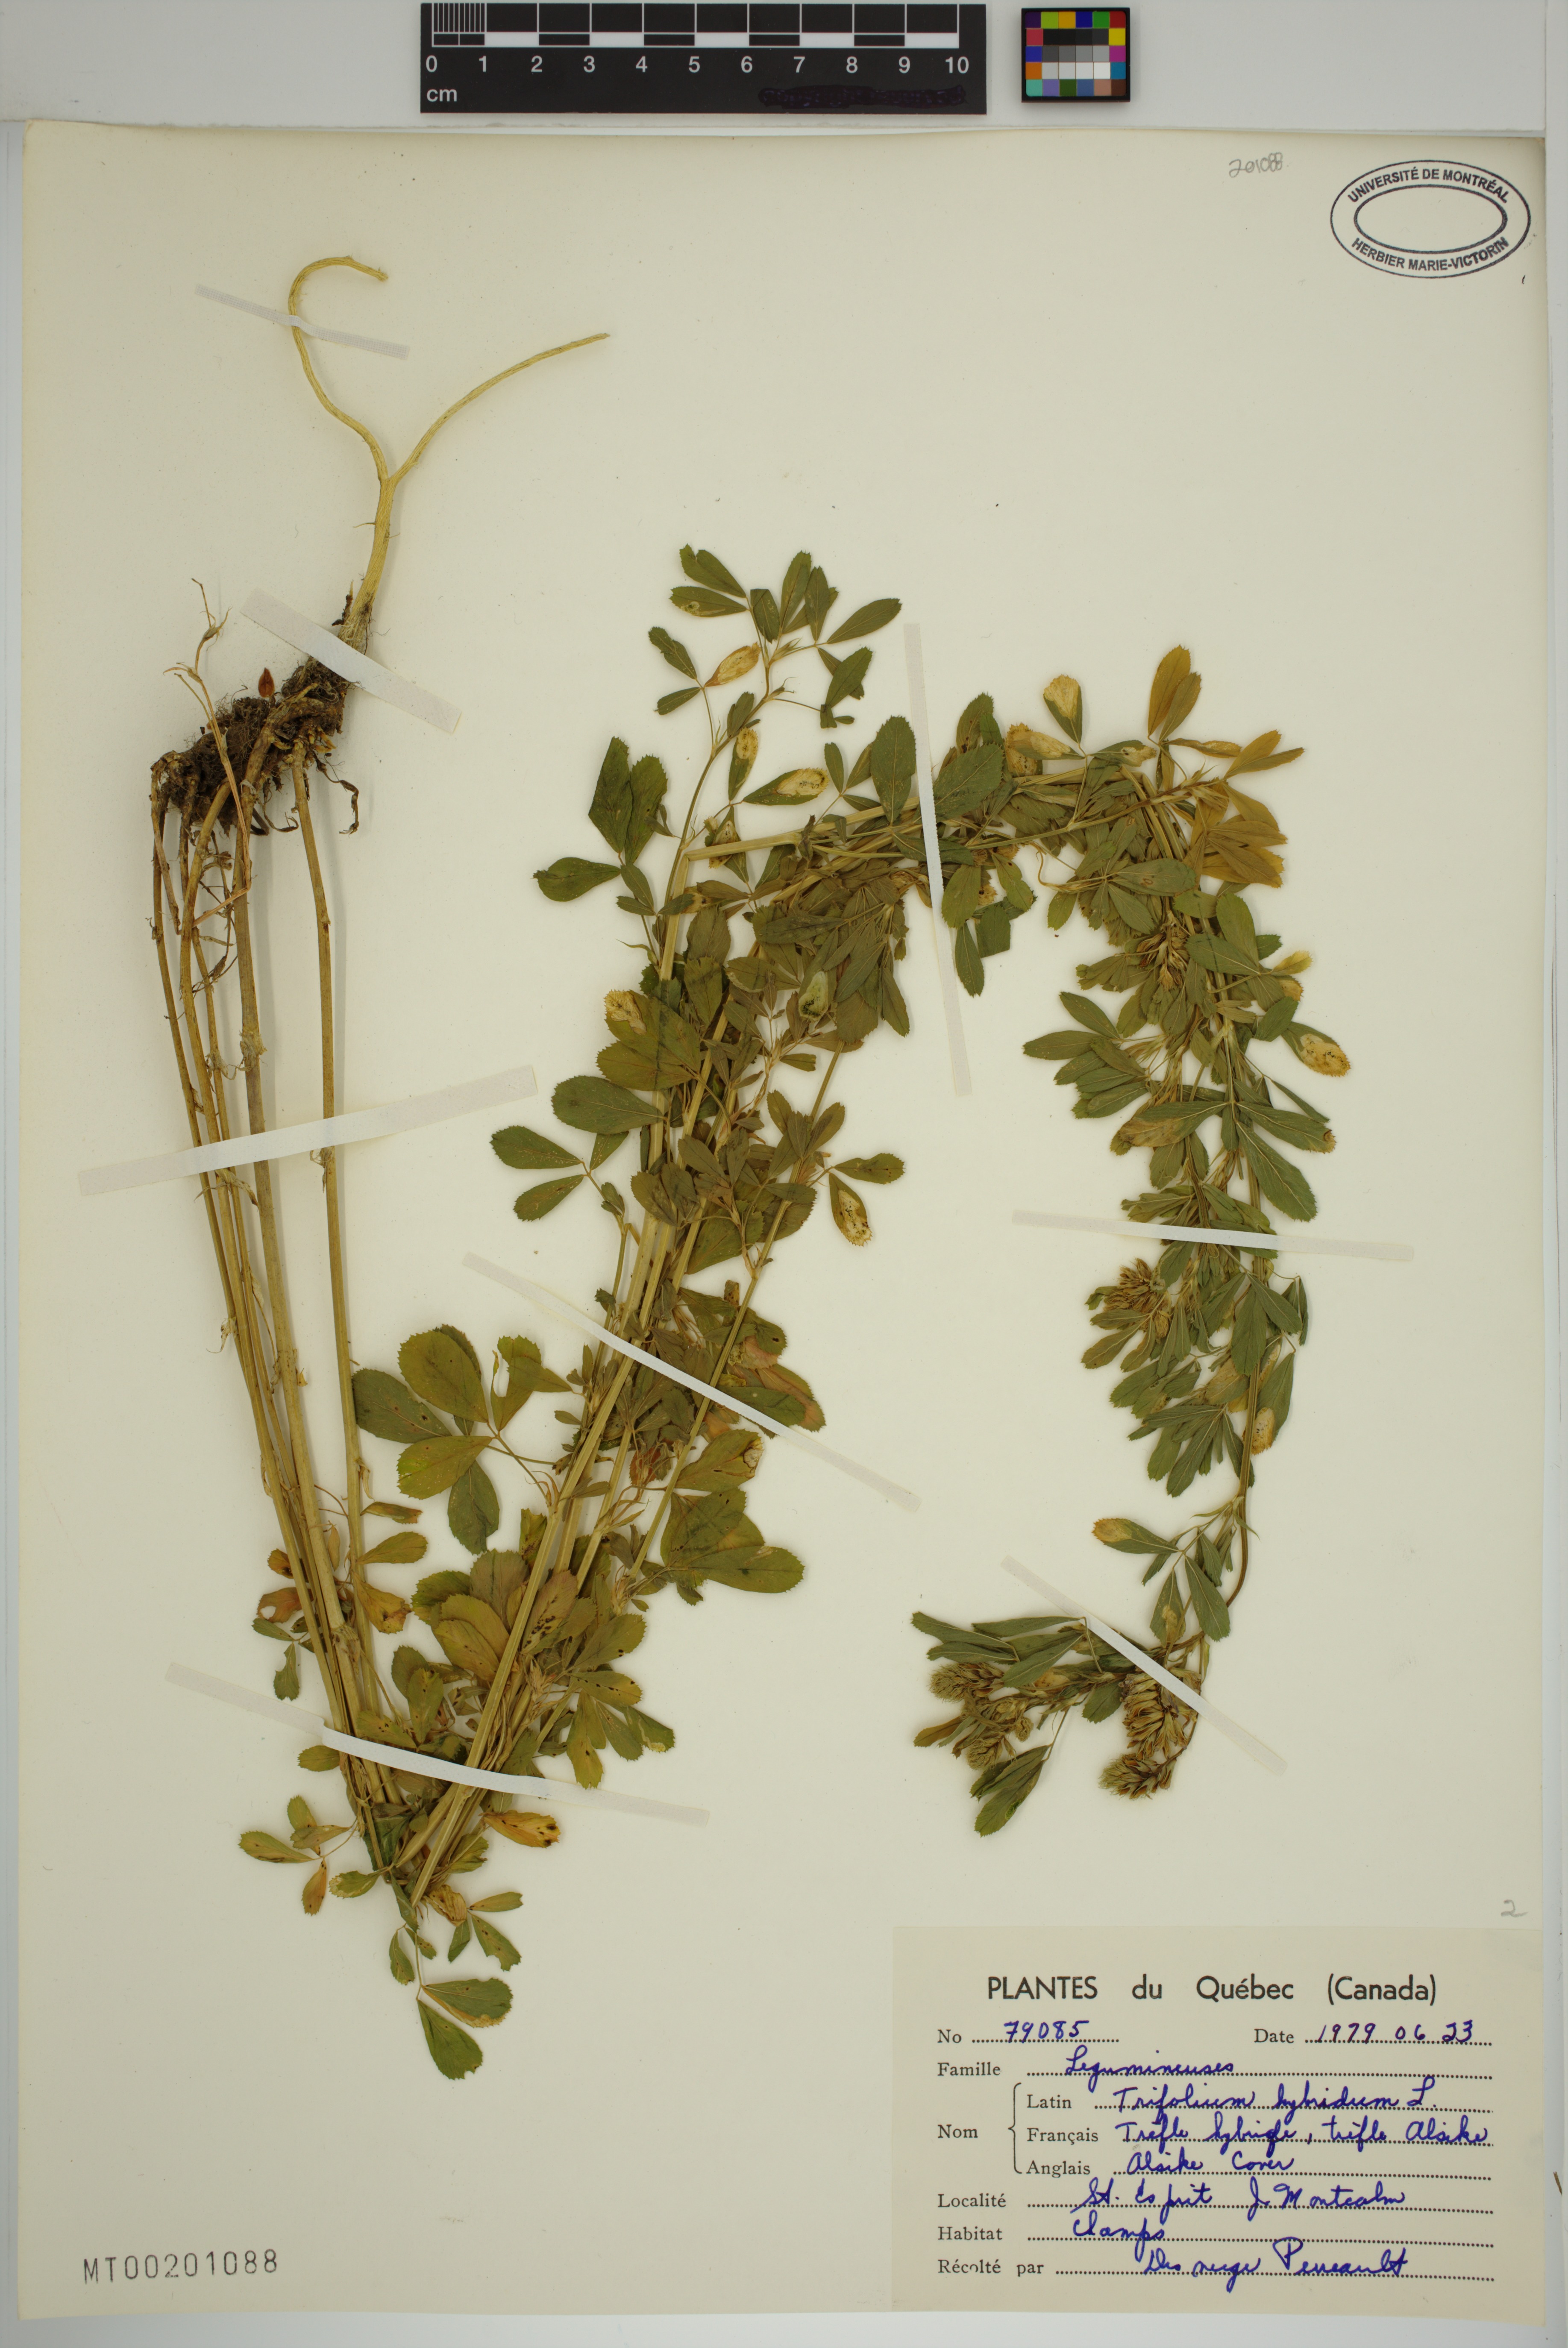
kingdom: Plantae
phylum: Tracheophyta
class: Magnoliopsida
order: Fabales
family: Fabaceae
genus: Trifolium
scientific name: Trifolium hybridum
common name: Alsike clover
